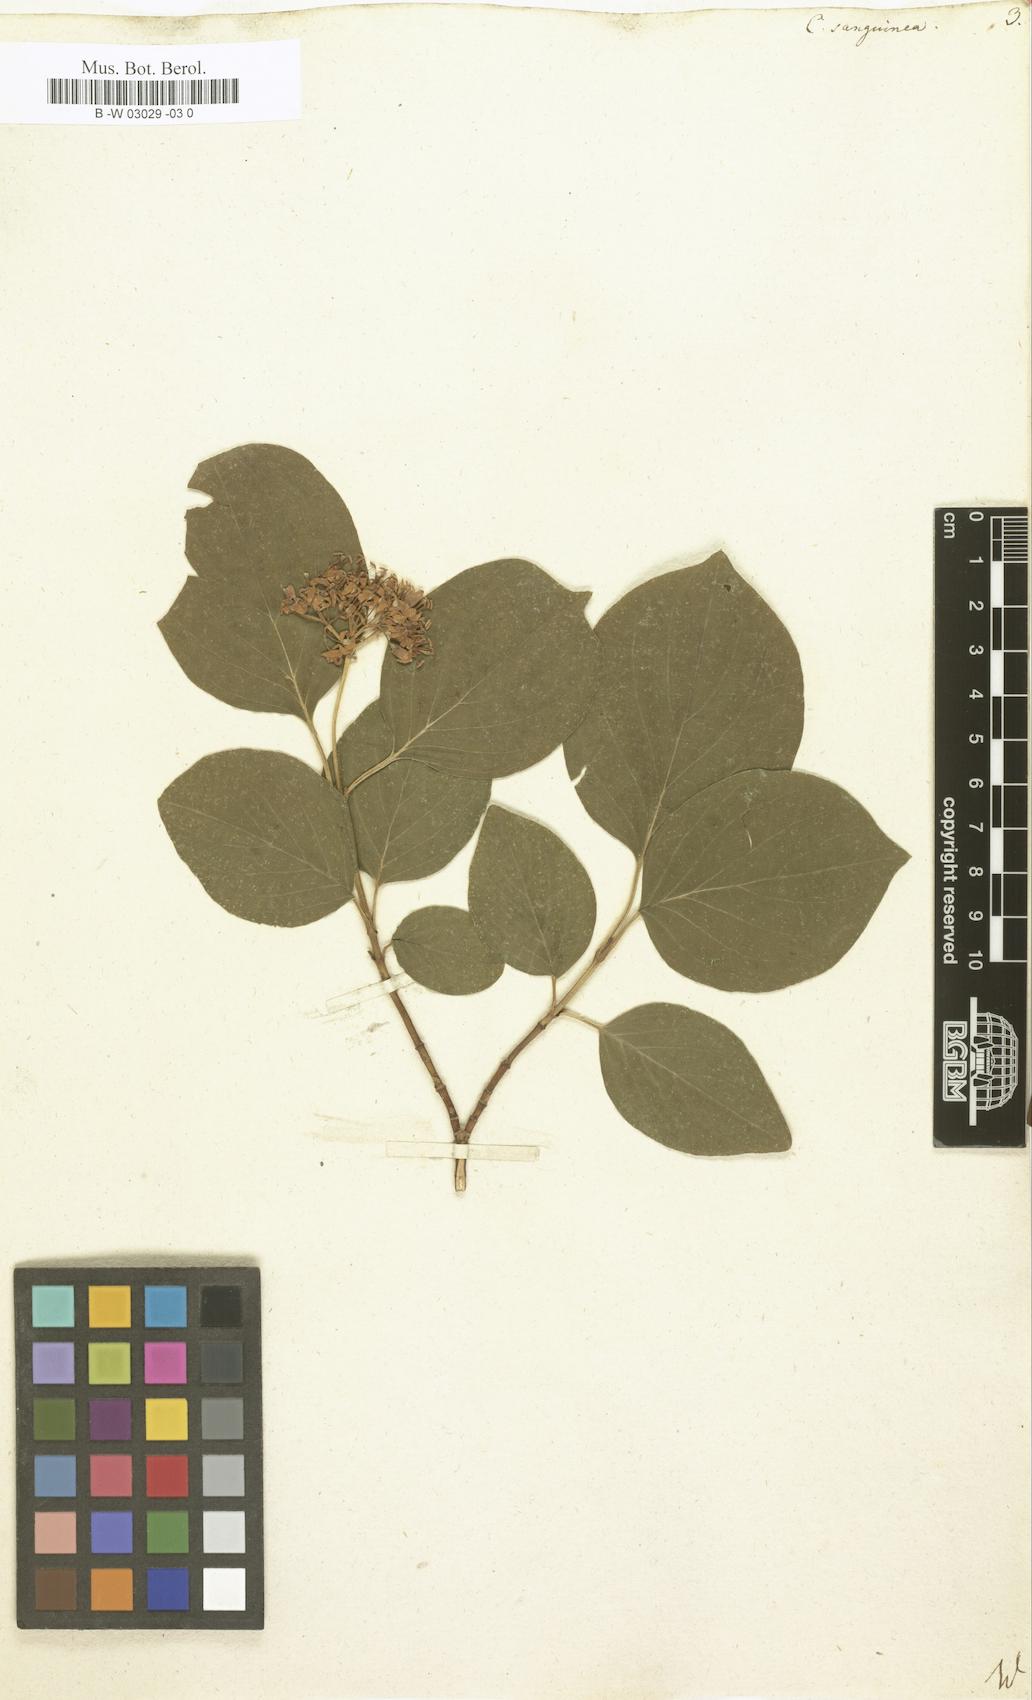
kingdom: Plantae
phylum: Tracheophyta
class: Magnoliopsida
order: Cornales
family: Cornaceae
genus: Cornus
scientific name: Cornus sanguinea
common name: Dogwood
